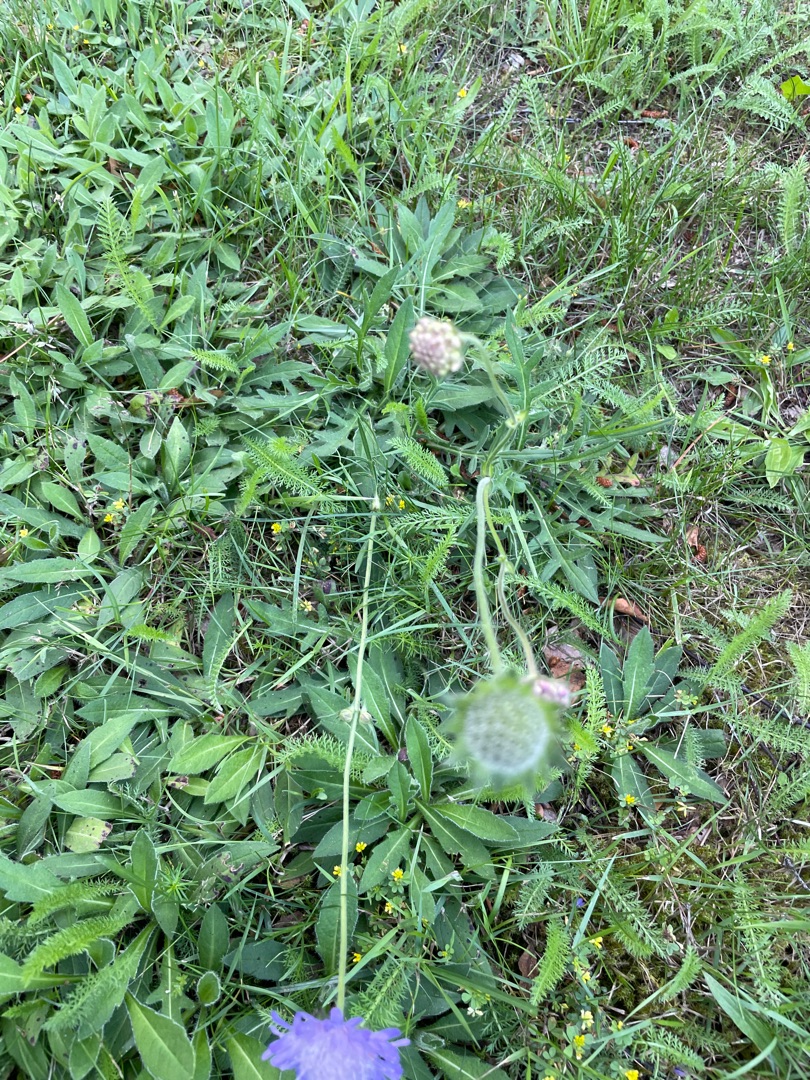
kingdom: Plantae
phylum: Tracheophyta
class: Magnoliopsida
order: Dipsacales
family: Caprifoliaceae
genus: Knautia
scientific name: Knautia arvensis
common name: Blåhat
